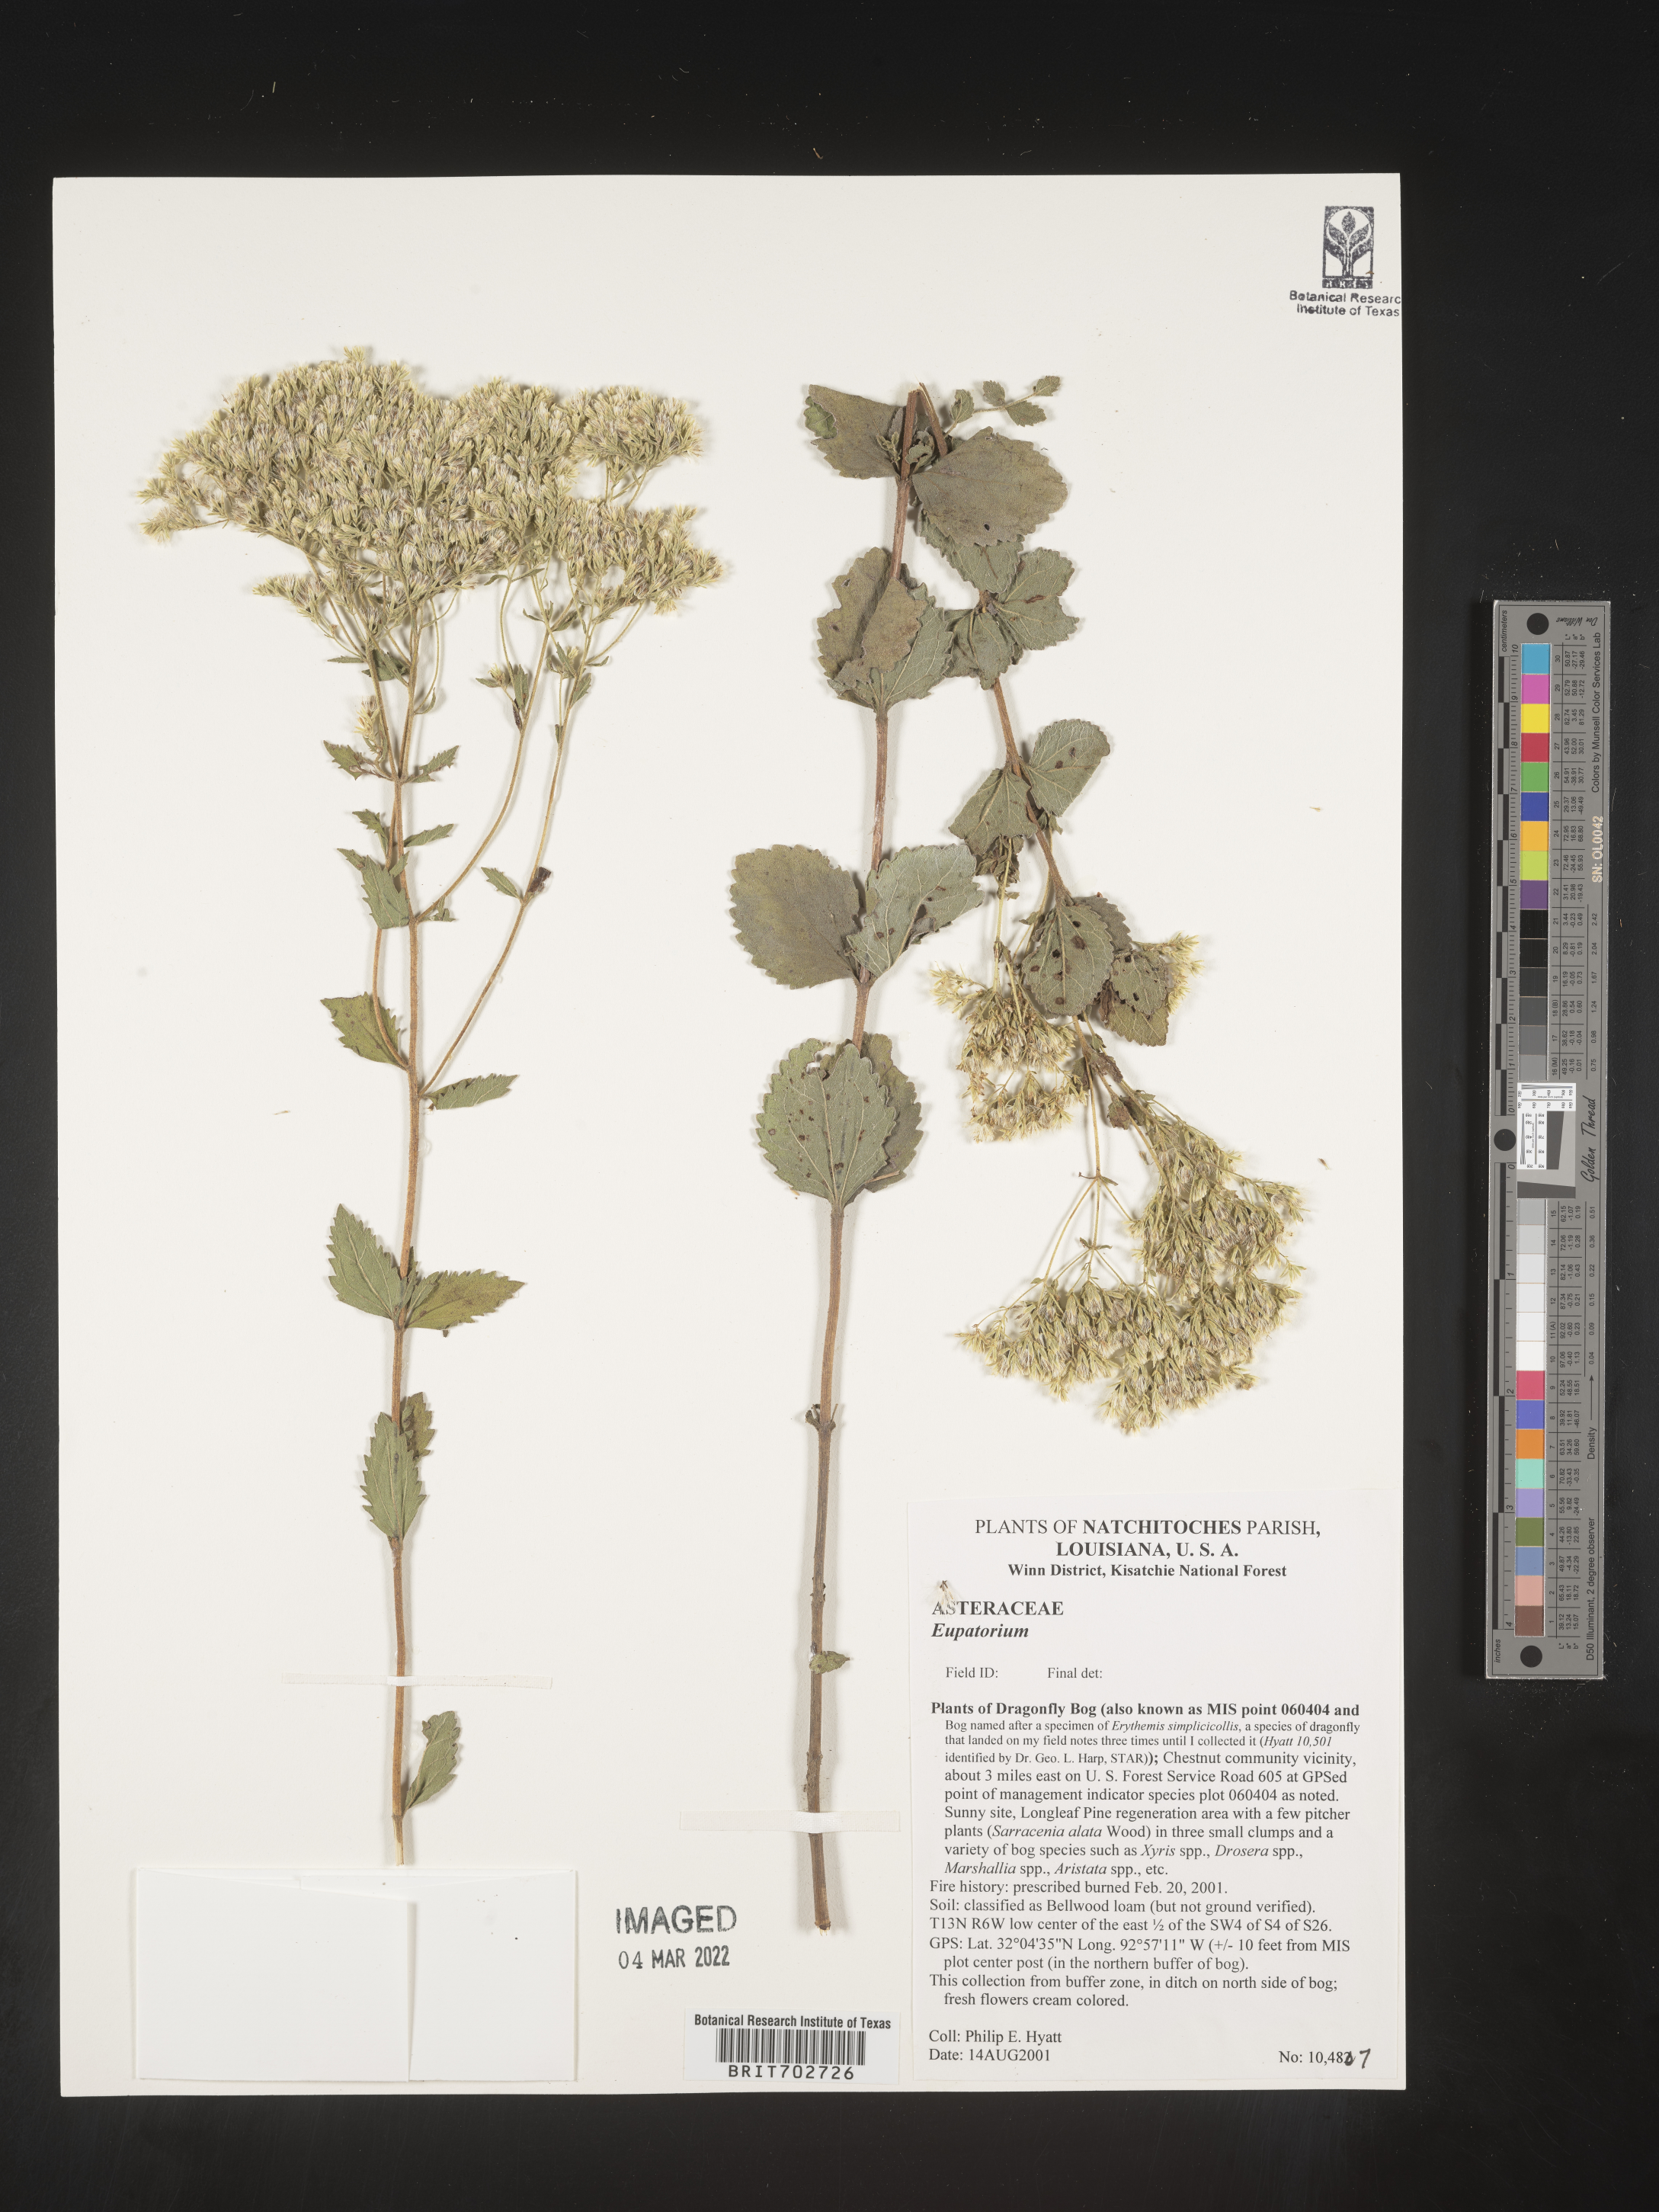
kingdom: Plantae
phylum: Tracheophyta
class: Magnoliopsida
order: Asterales
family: Asteraceae
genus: Eupatorium
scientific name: Eupatorium
